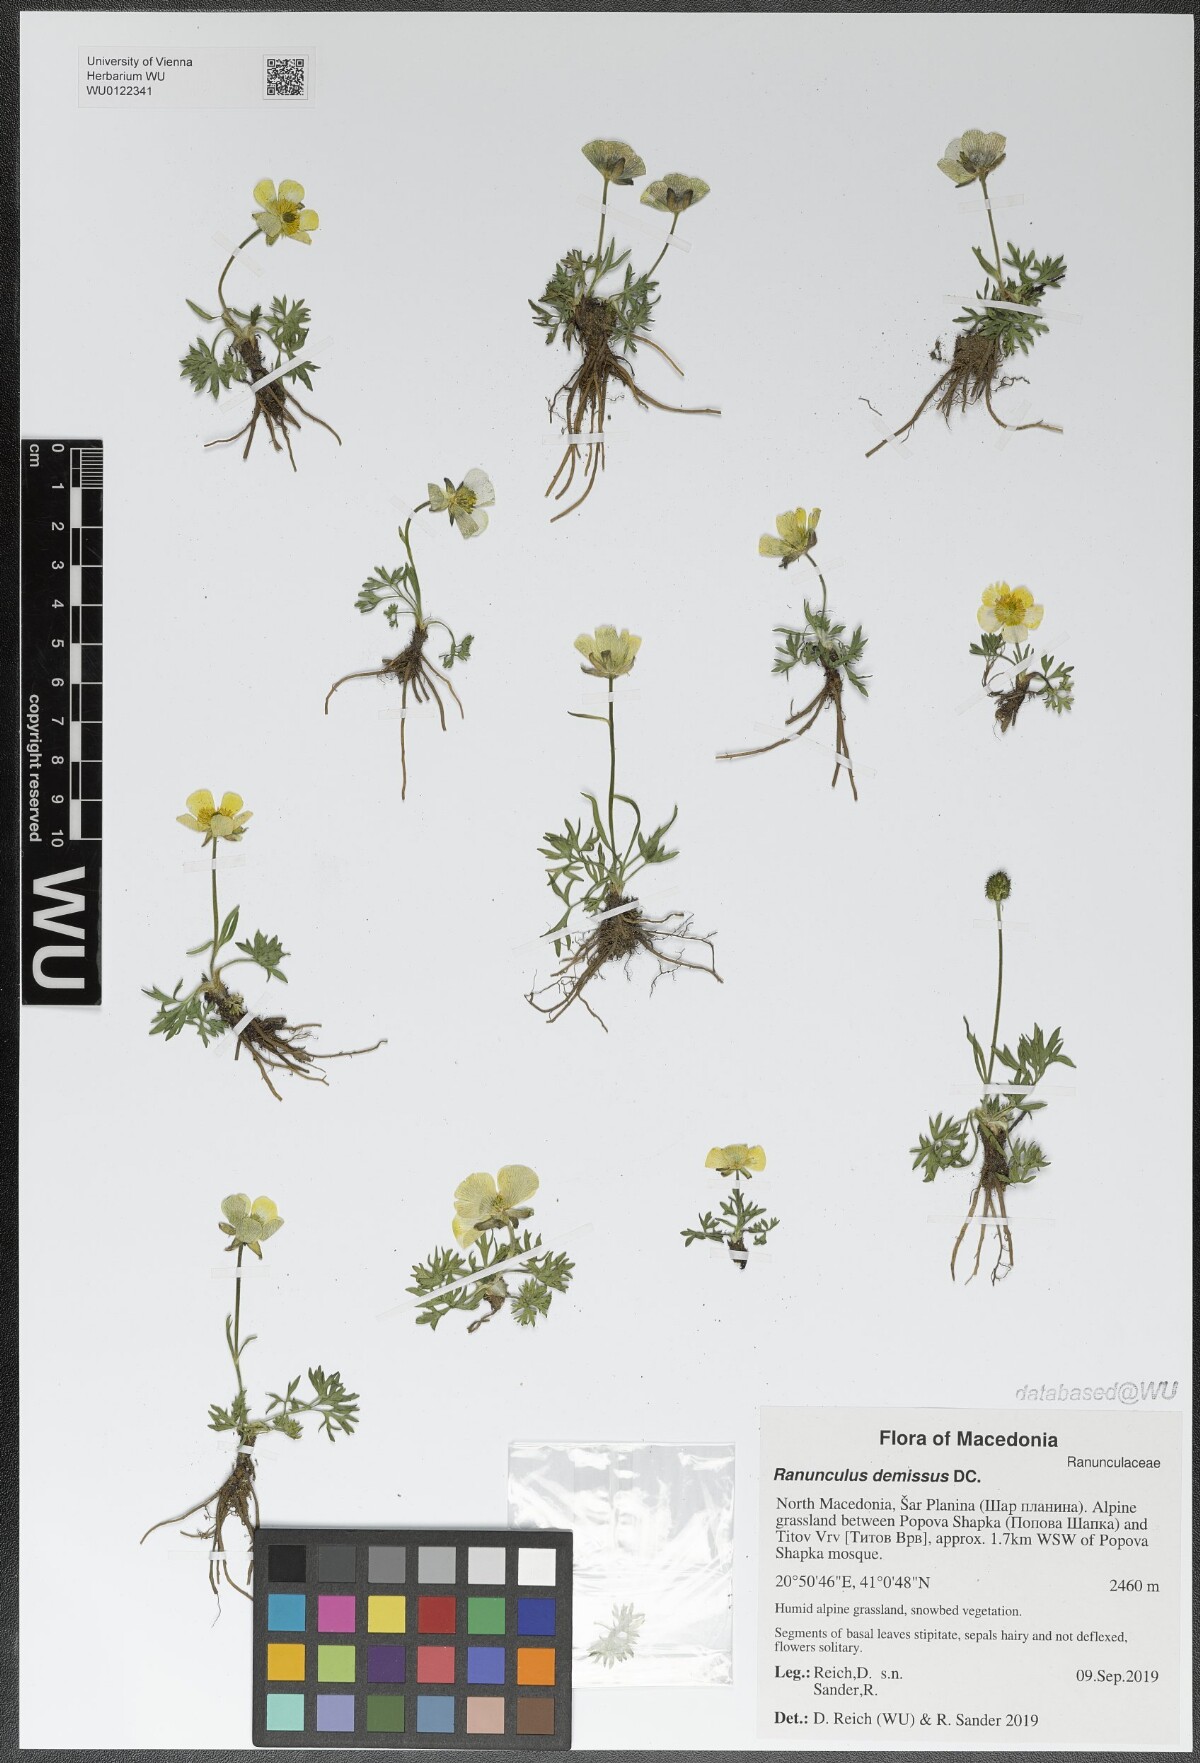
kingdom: Plantae
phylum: Tracheophyta
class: Magnoliopsida
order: Ranunculales
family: Ranunculaceae
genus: Ranunculus
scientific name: Ranunculus demissus
